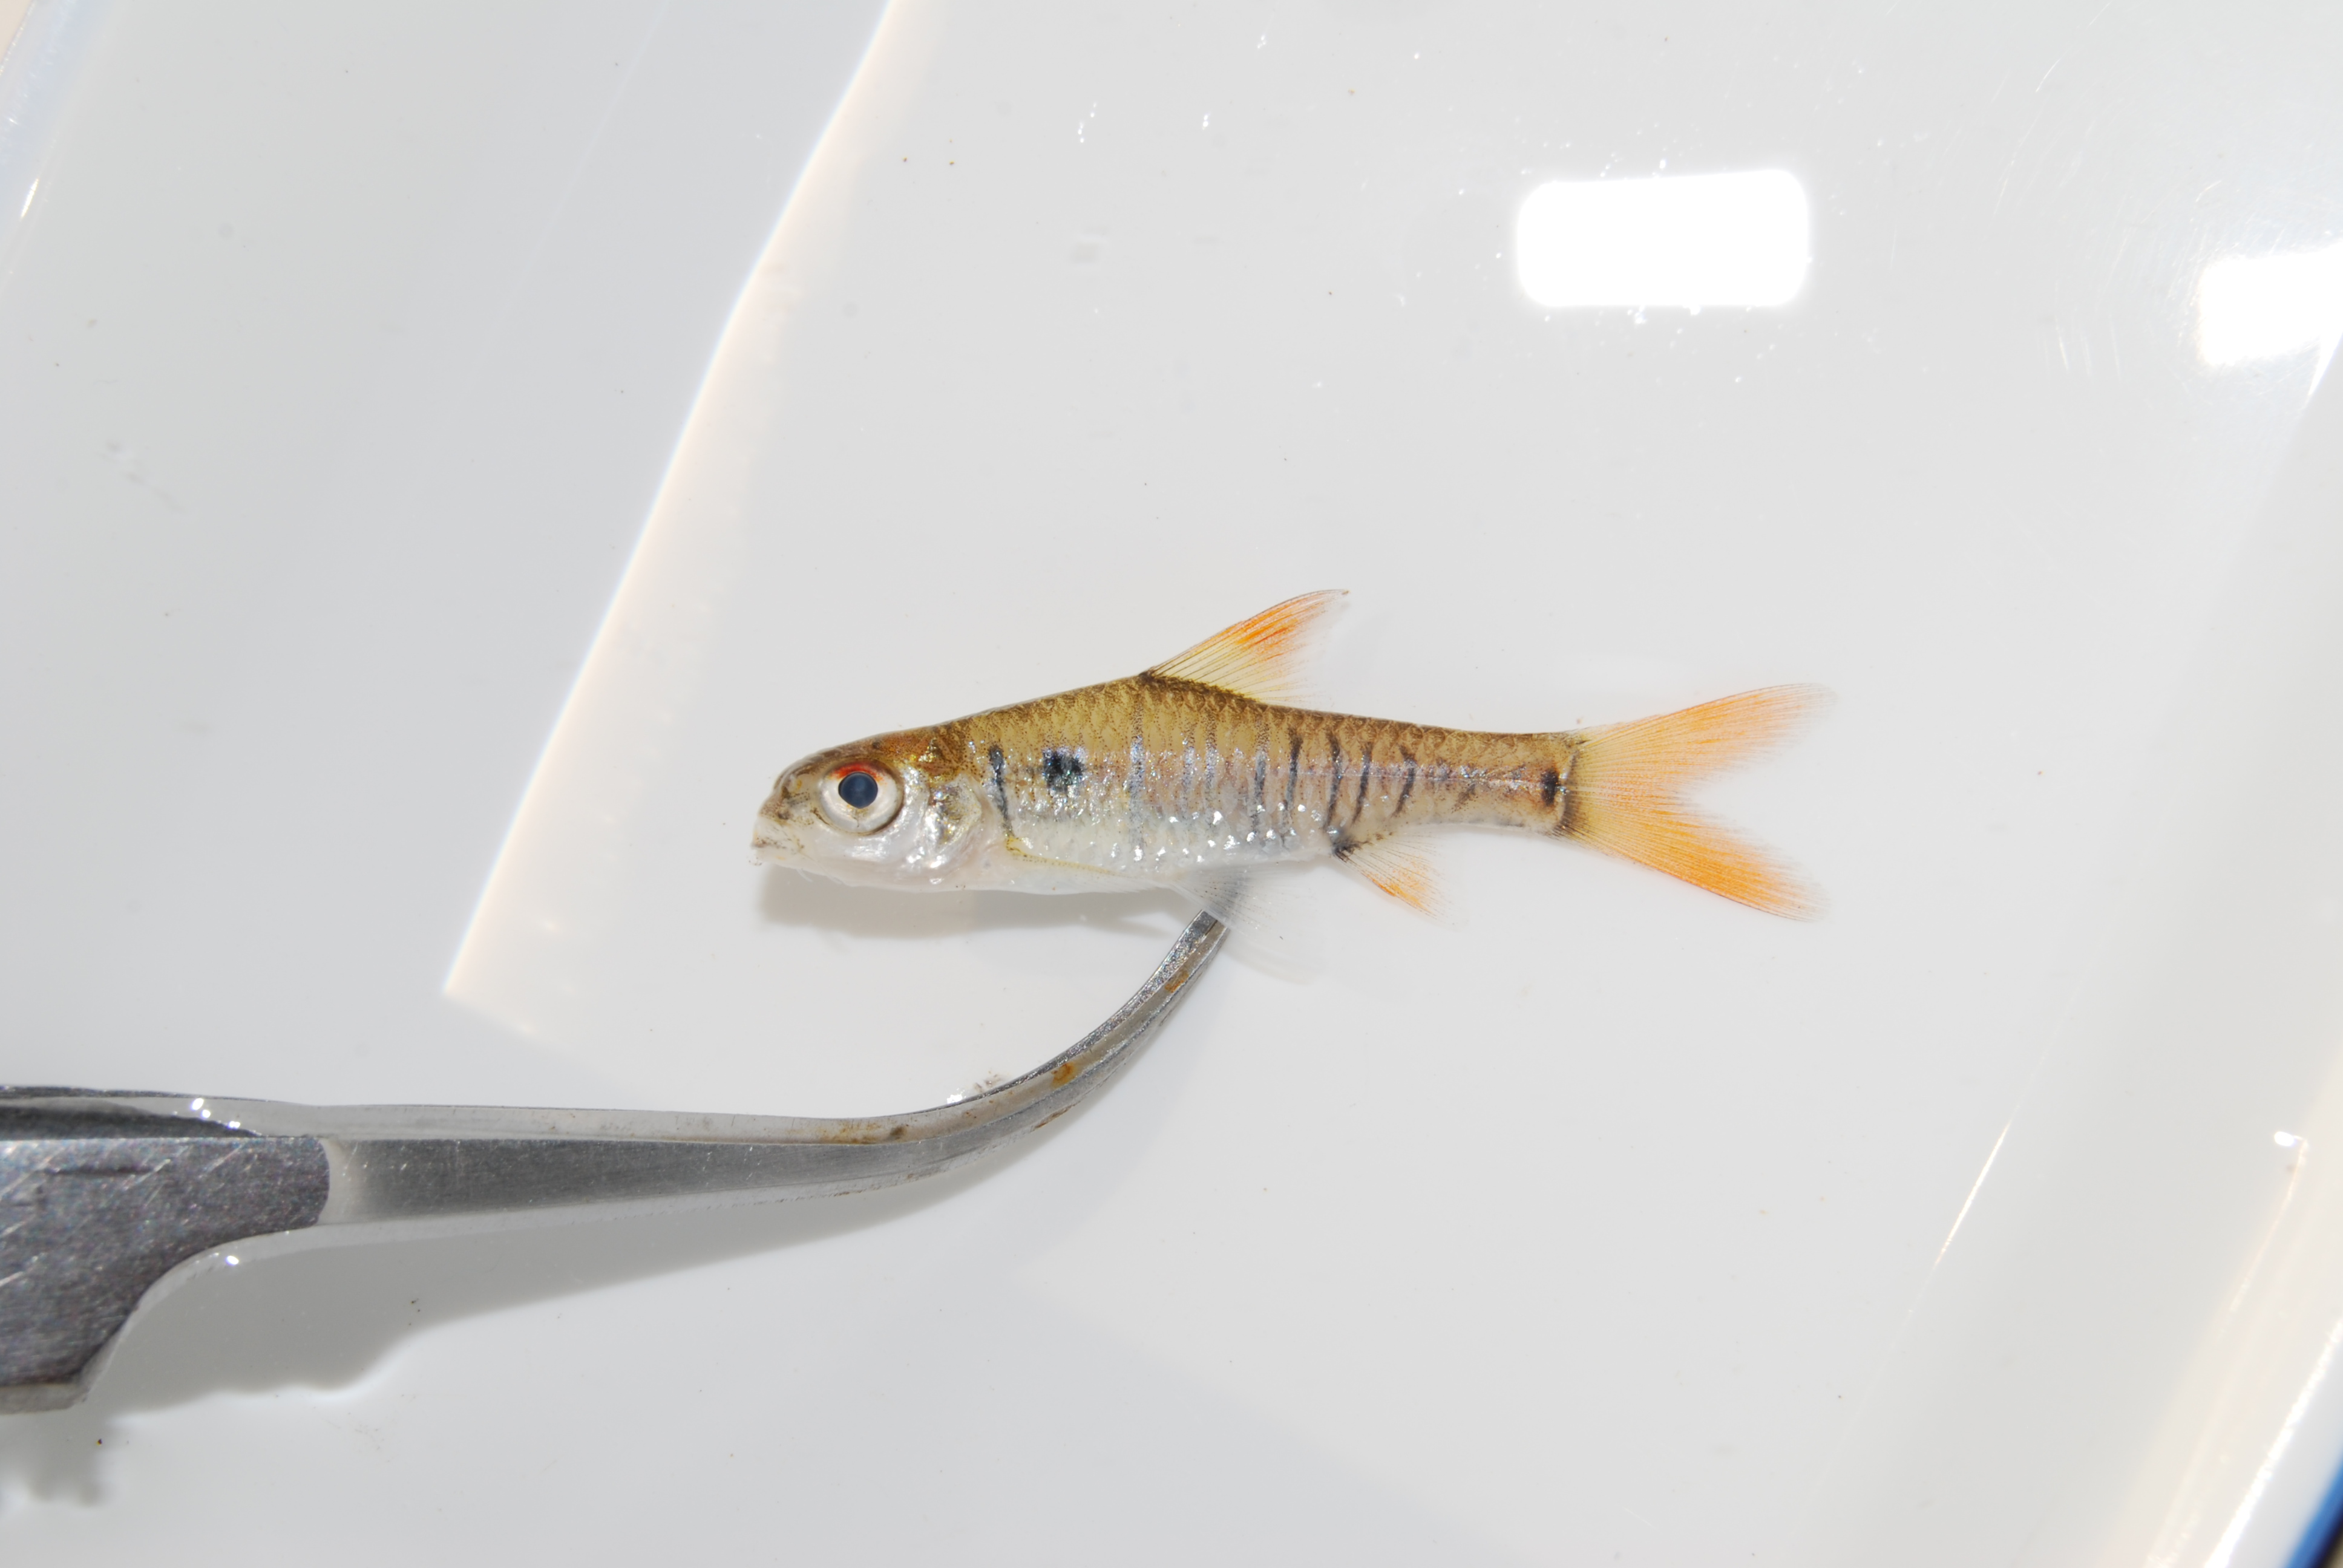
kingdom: Animalia
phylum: Chordata
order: Cypriniformes
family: Cyprinidae
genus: Enteromius
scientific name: Enteromius fasciolatus
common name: Red barb
